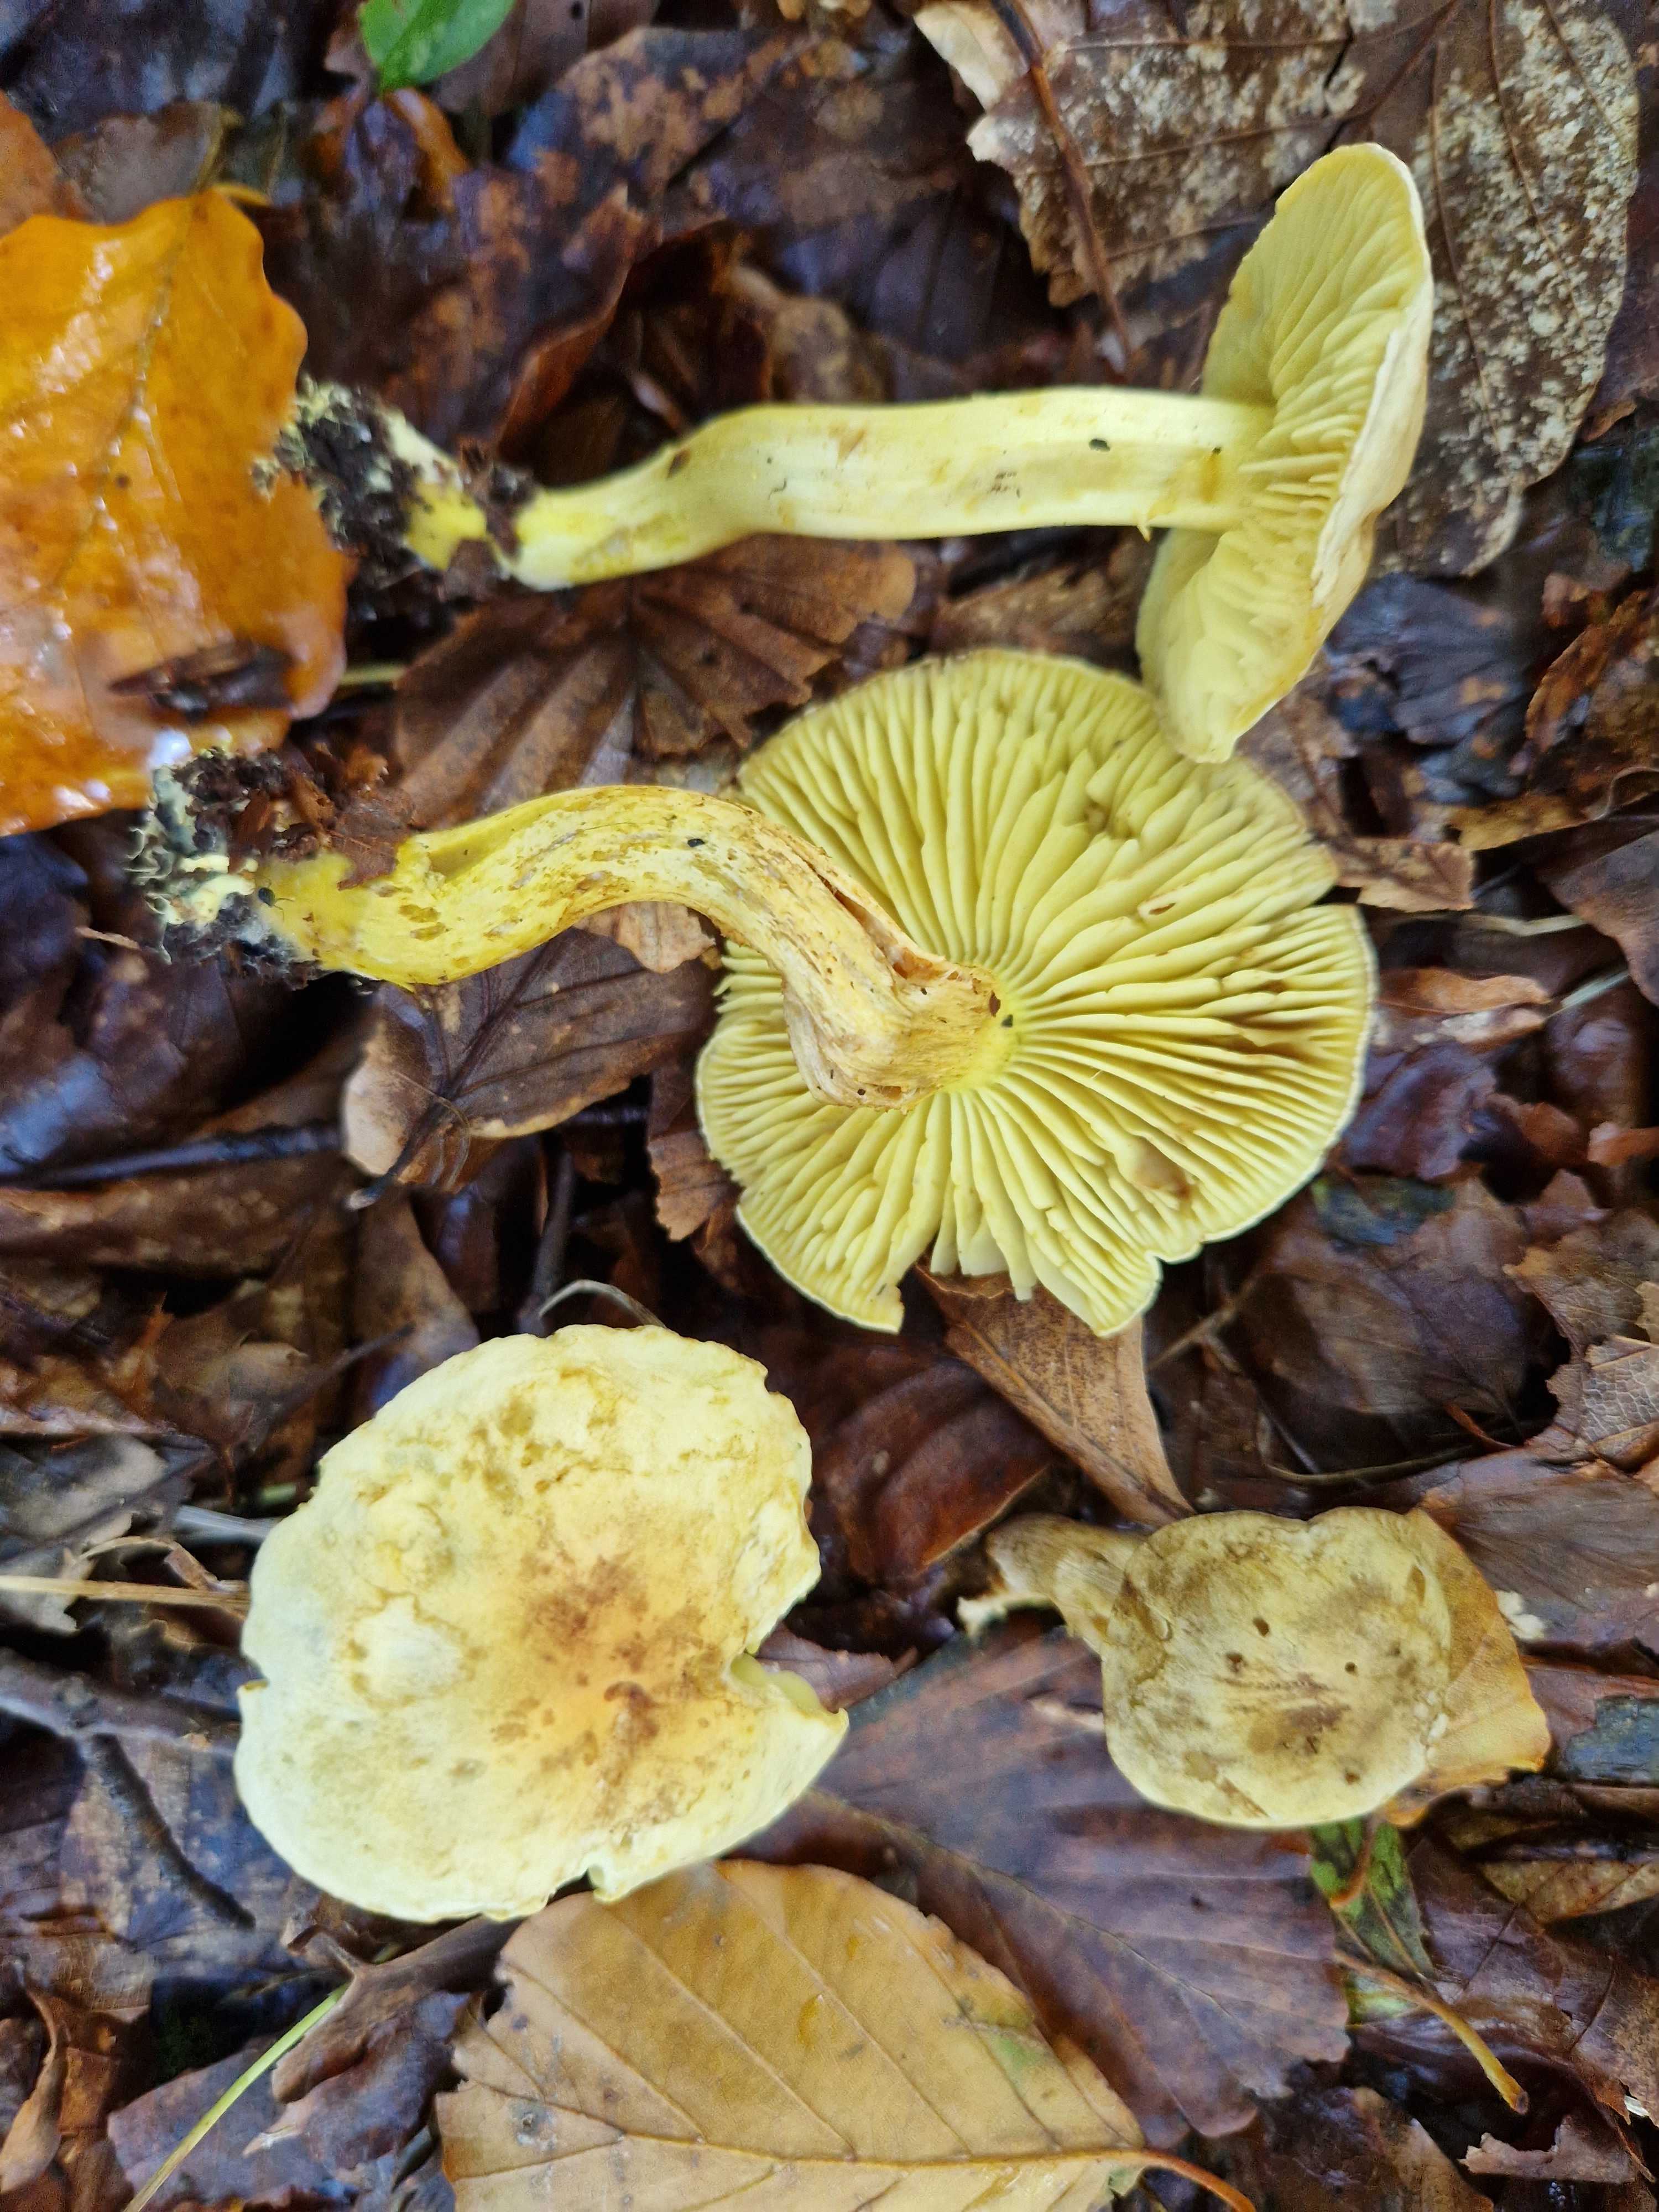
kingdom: Fungi
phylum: Basidiomycota
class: Agaricomycetes
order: Agaricales
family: Tricholomataceae
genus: Tricholoma
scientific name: Tricholoma sulphureum
